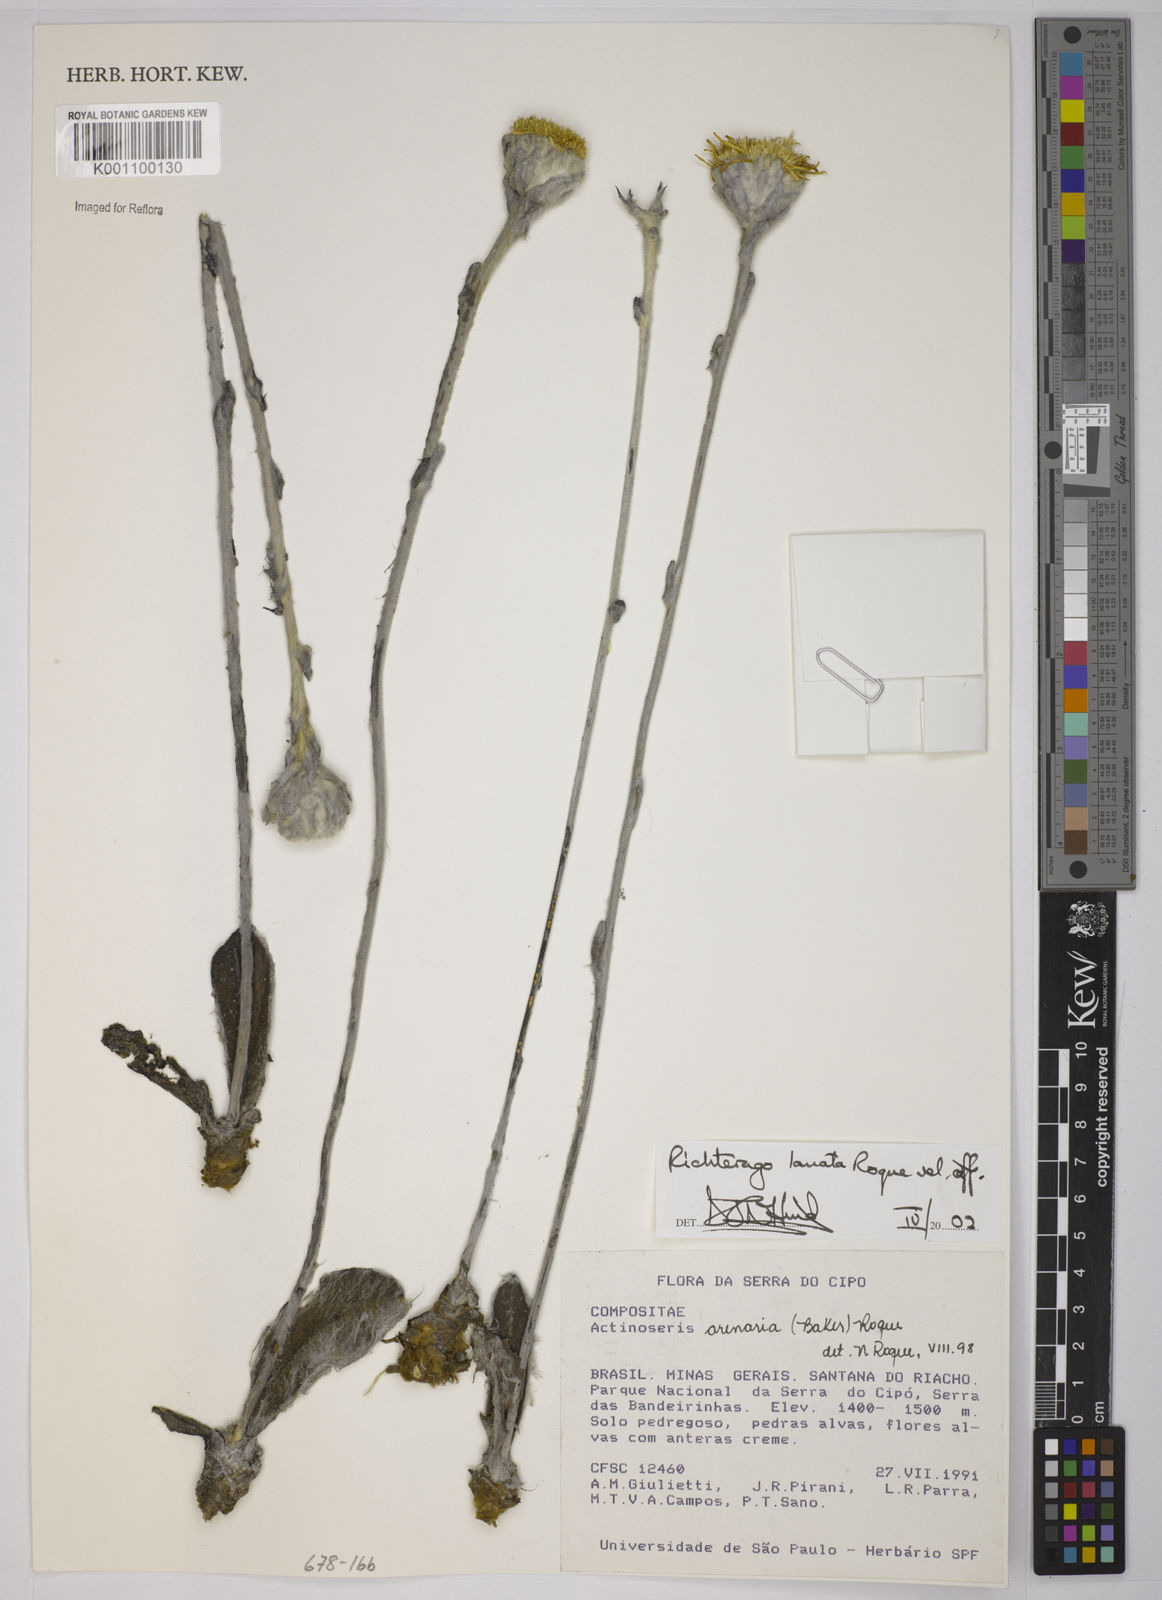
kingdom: Plantae
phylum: Tracheophyta
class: Magnoliopsida
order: Asterales
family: Asteraceae
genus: Richterago
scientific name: Richterago lanata
